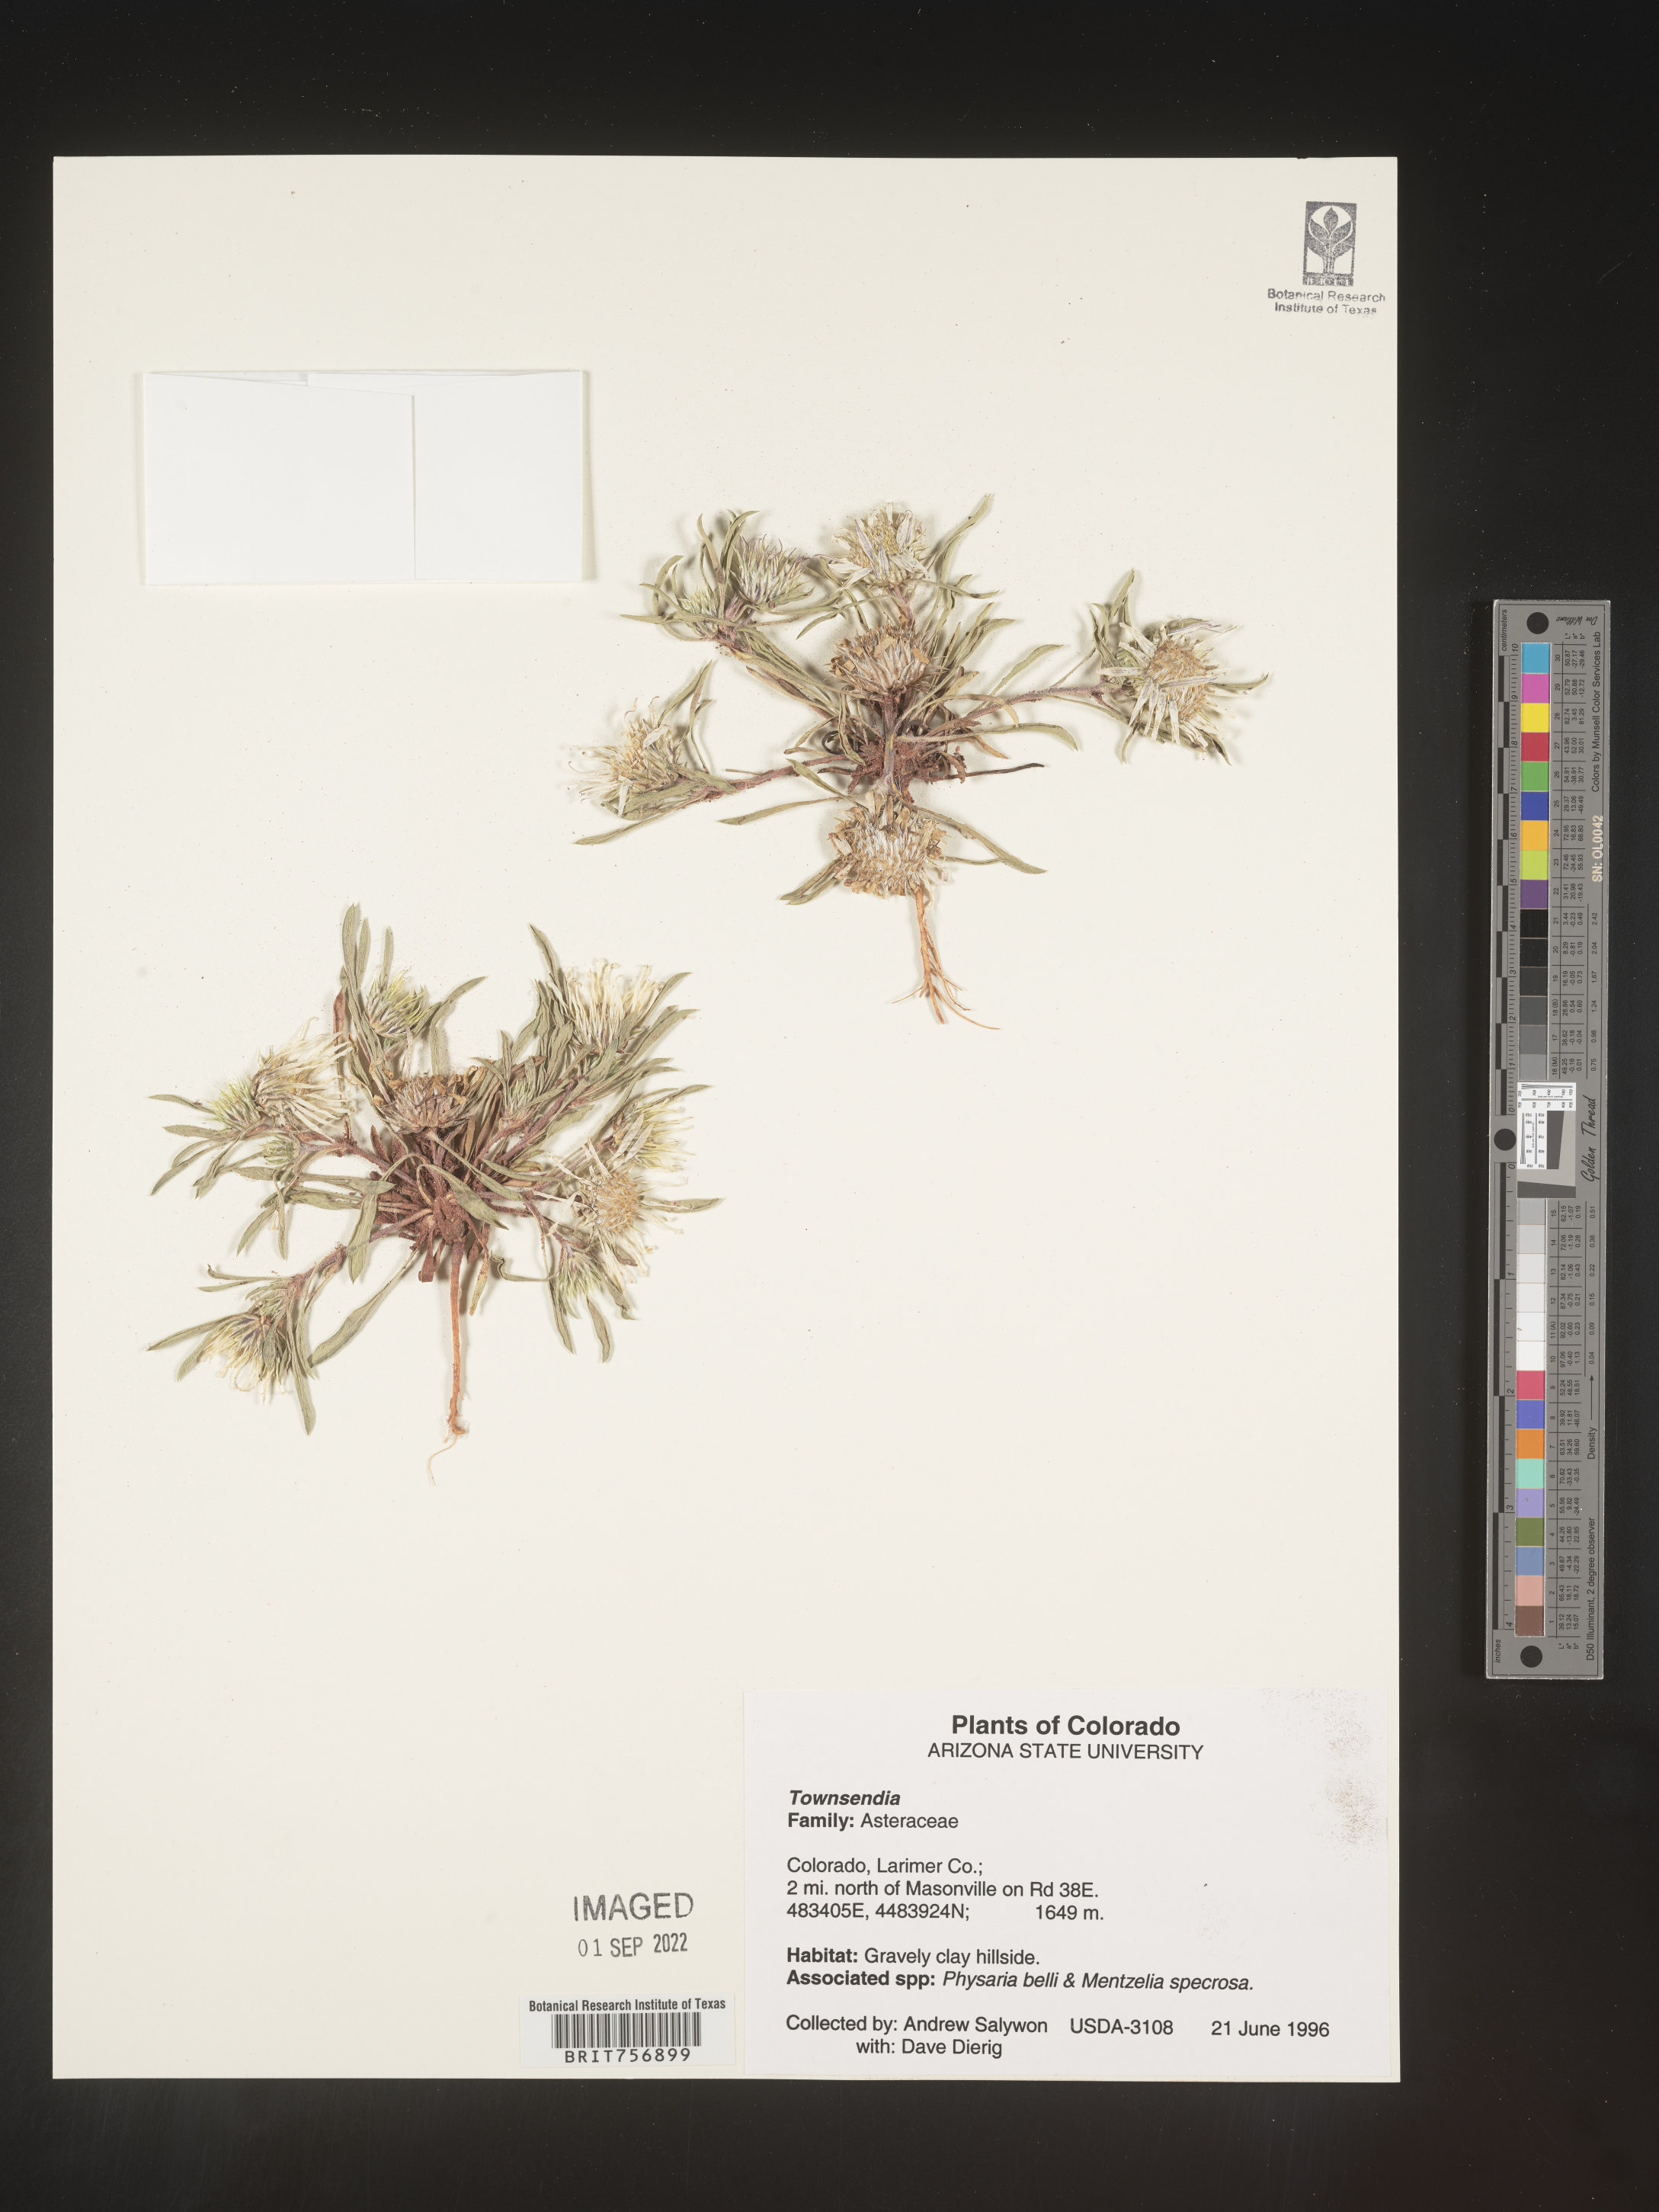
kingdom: Plantae
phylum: Tracheophyta
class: Magnoliopsida
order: Asterales
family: Asteraceae
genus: Townsendia
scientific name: Townsendia
